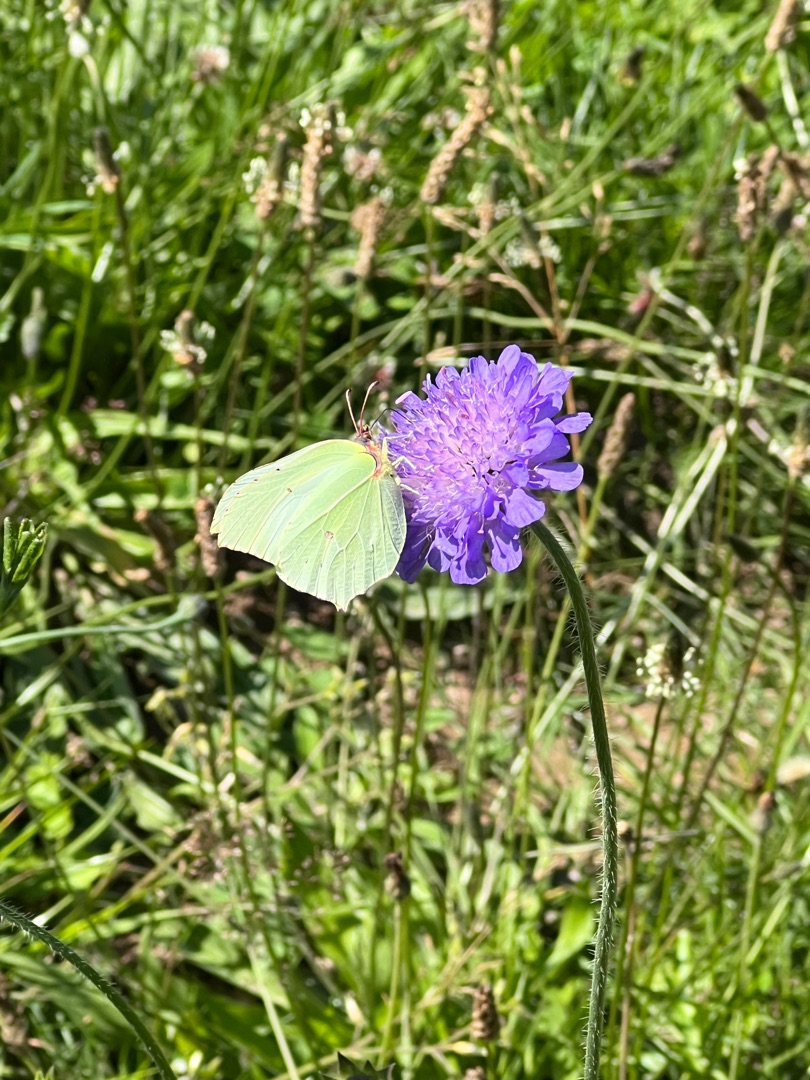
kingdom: Animalia
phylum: Arthropoda
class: Insecta
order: Lepidoptera
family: Pieridae
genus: Gonepteryx
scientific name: Gonepteryx rhamni
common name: Citronsommerfugl
